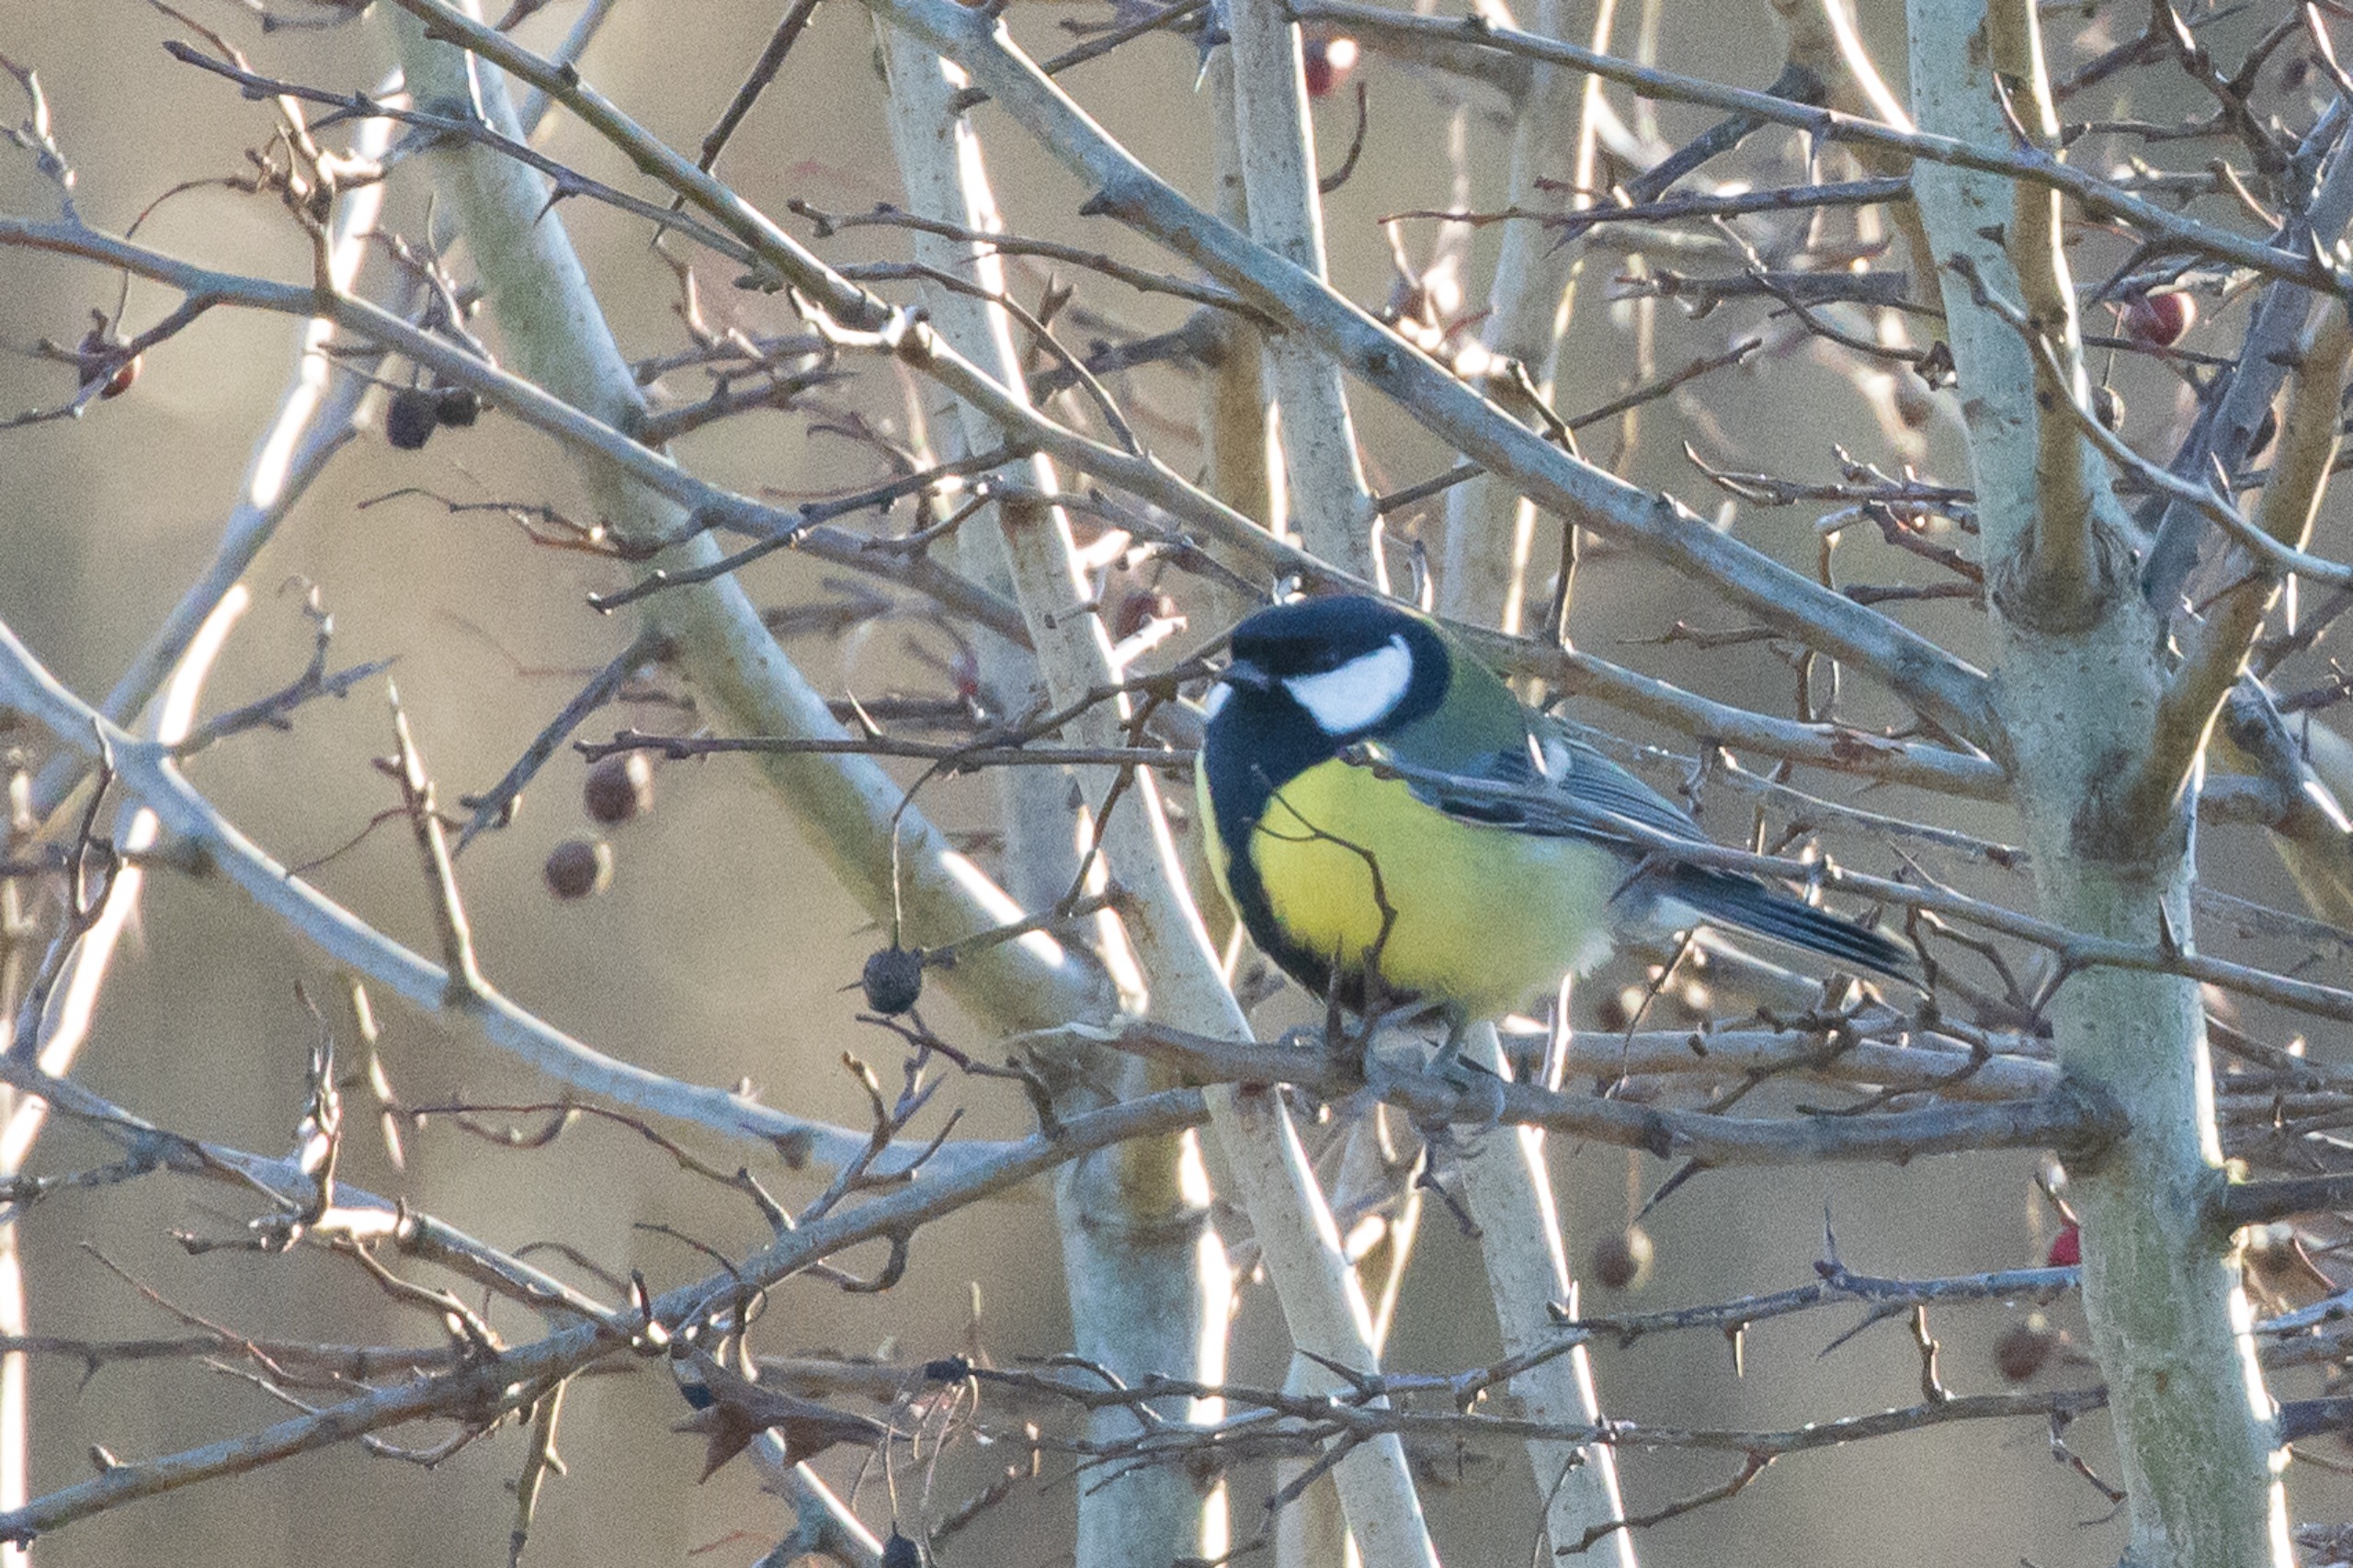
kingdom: Animalia
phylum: Chordata
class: Aves
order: Passeriformes
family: Paridae
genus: Parus
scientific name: Parus major
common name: Musvit
